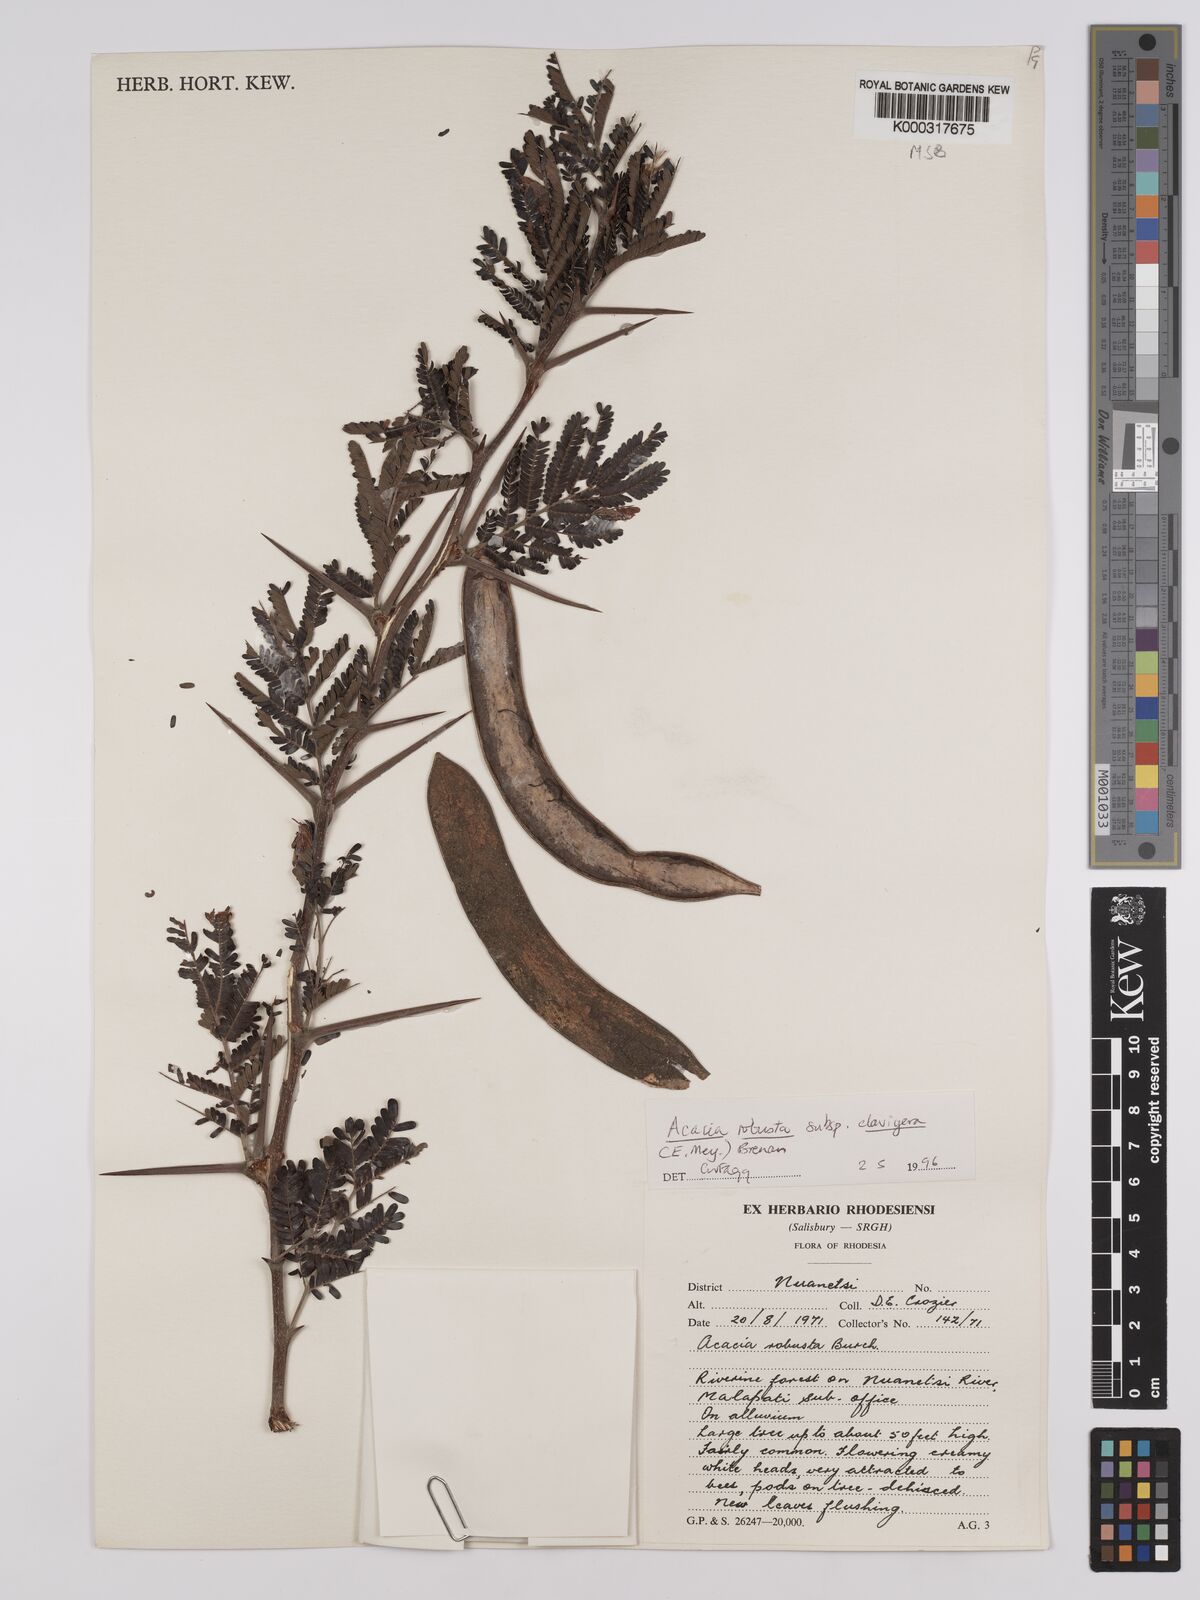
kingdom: Plantae
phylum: Tracheophyta
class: Magnoliopsida
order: Fabales
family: Fabaceae
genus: Vachellia
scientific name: Vachellia robusta
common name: Ankle thorn
